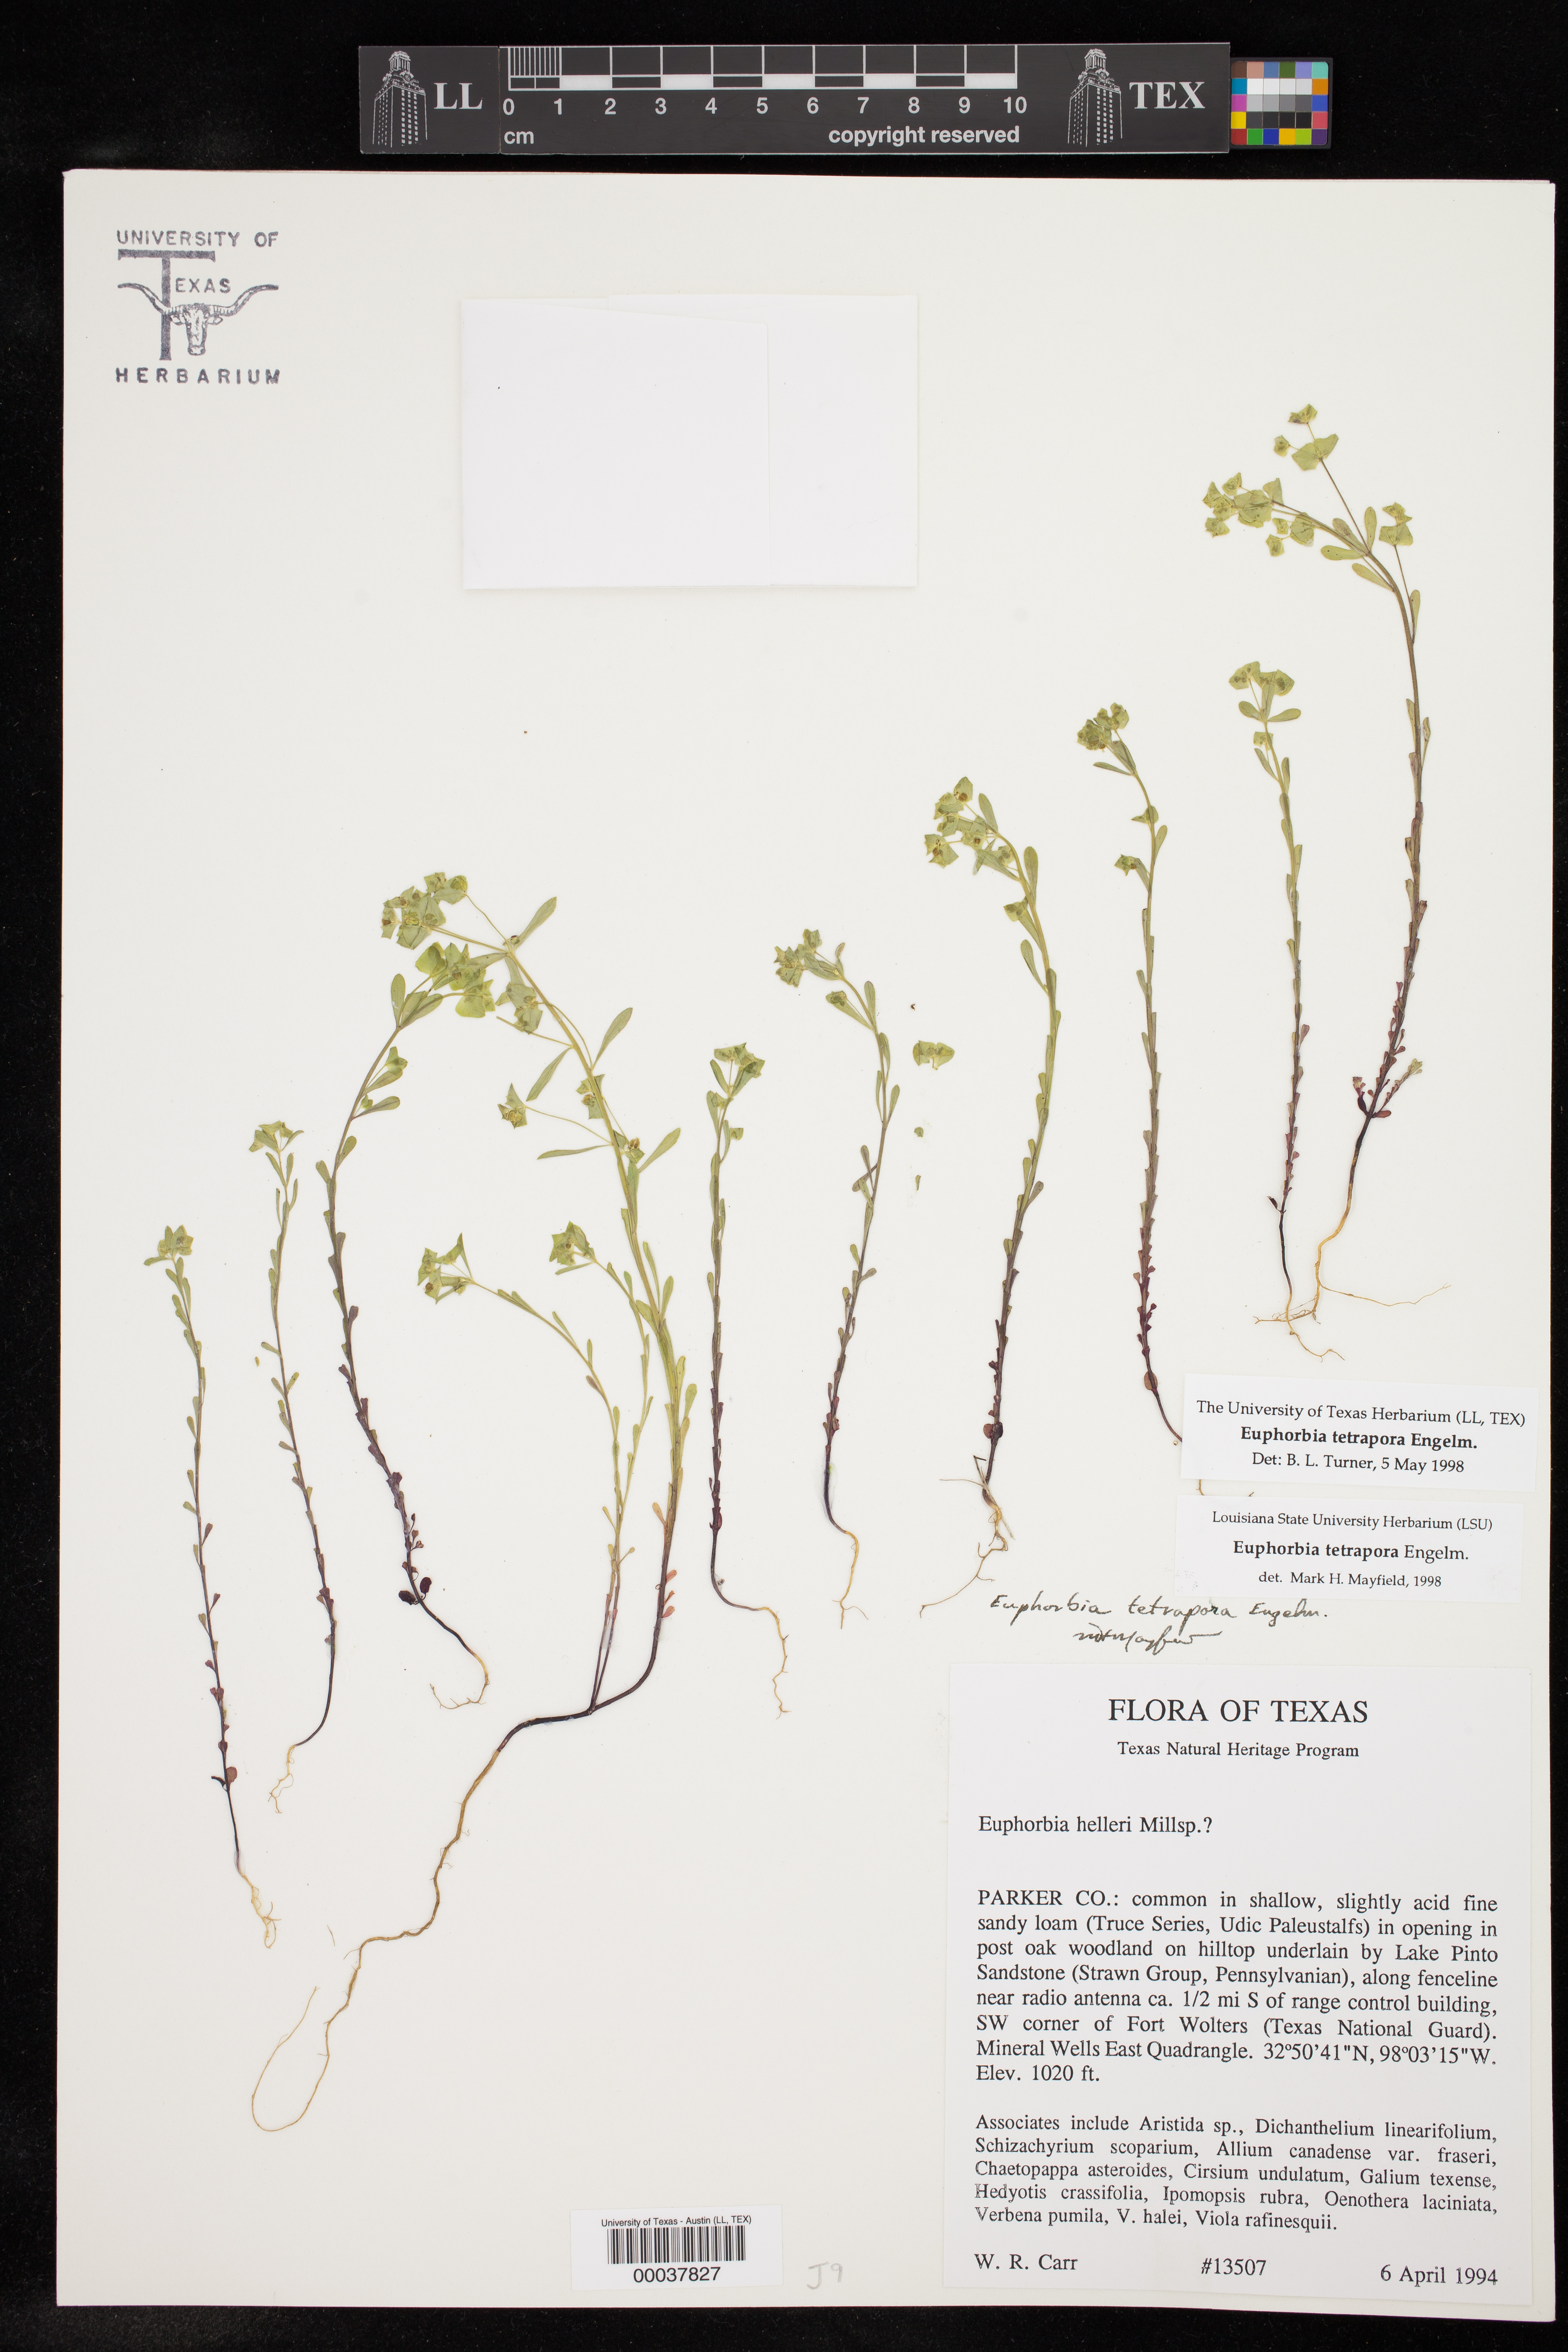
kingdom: Plantae
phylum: Tracheophyta
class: Magnoliopsida
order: Malpighiales
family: Euphorbiaceae
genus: Euphorbia
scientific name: Euphorbia tetrapora
